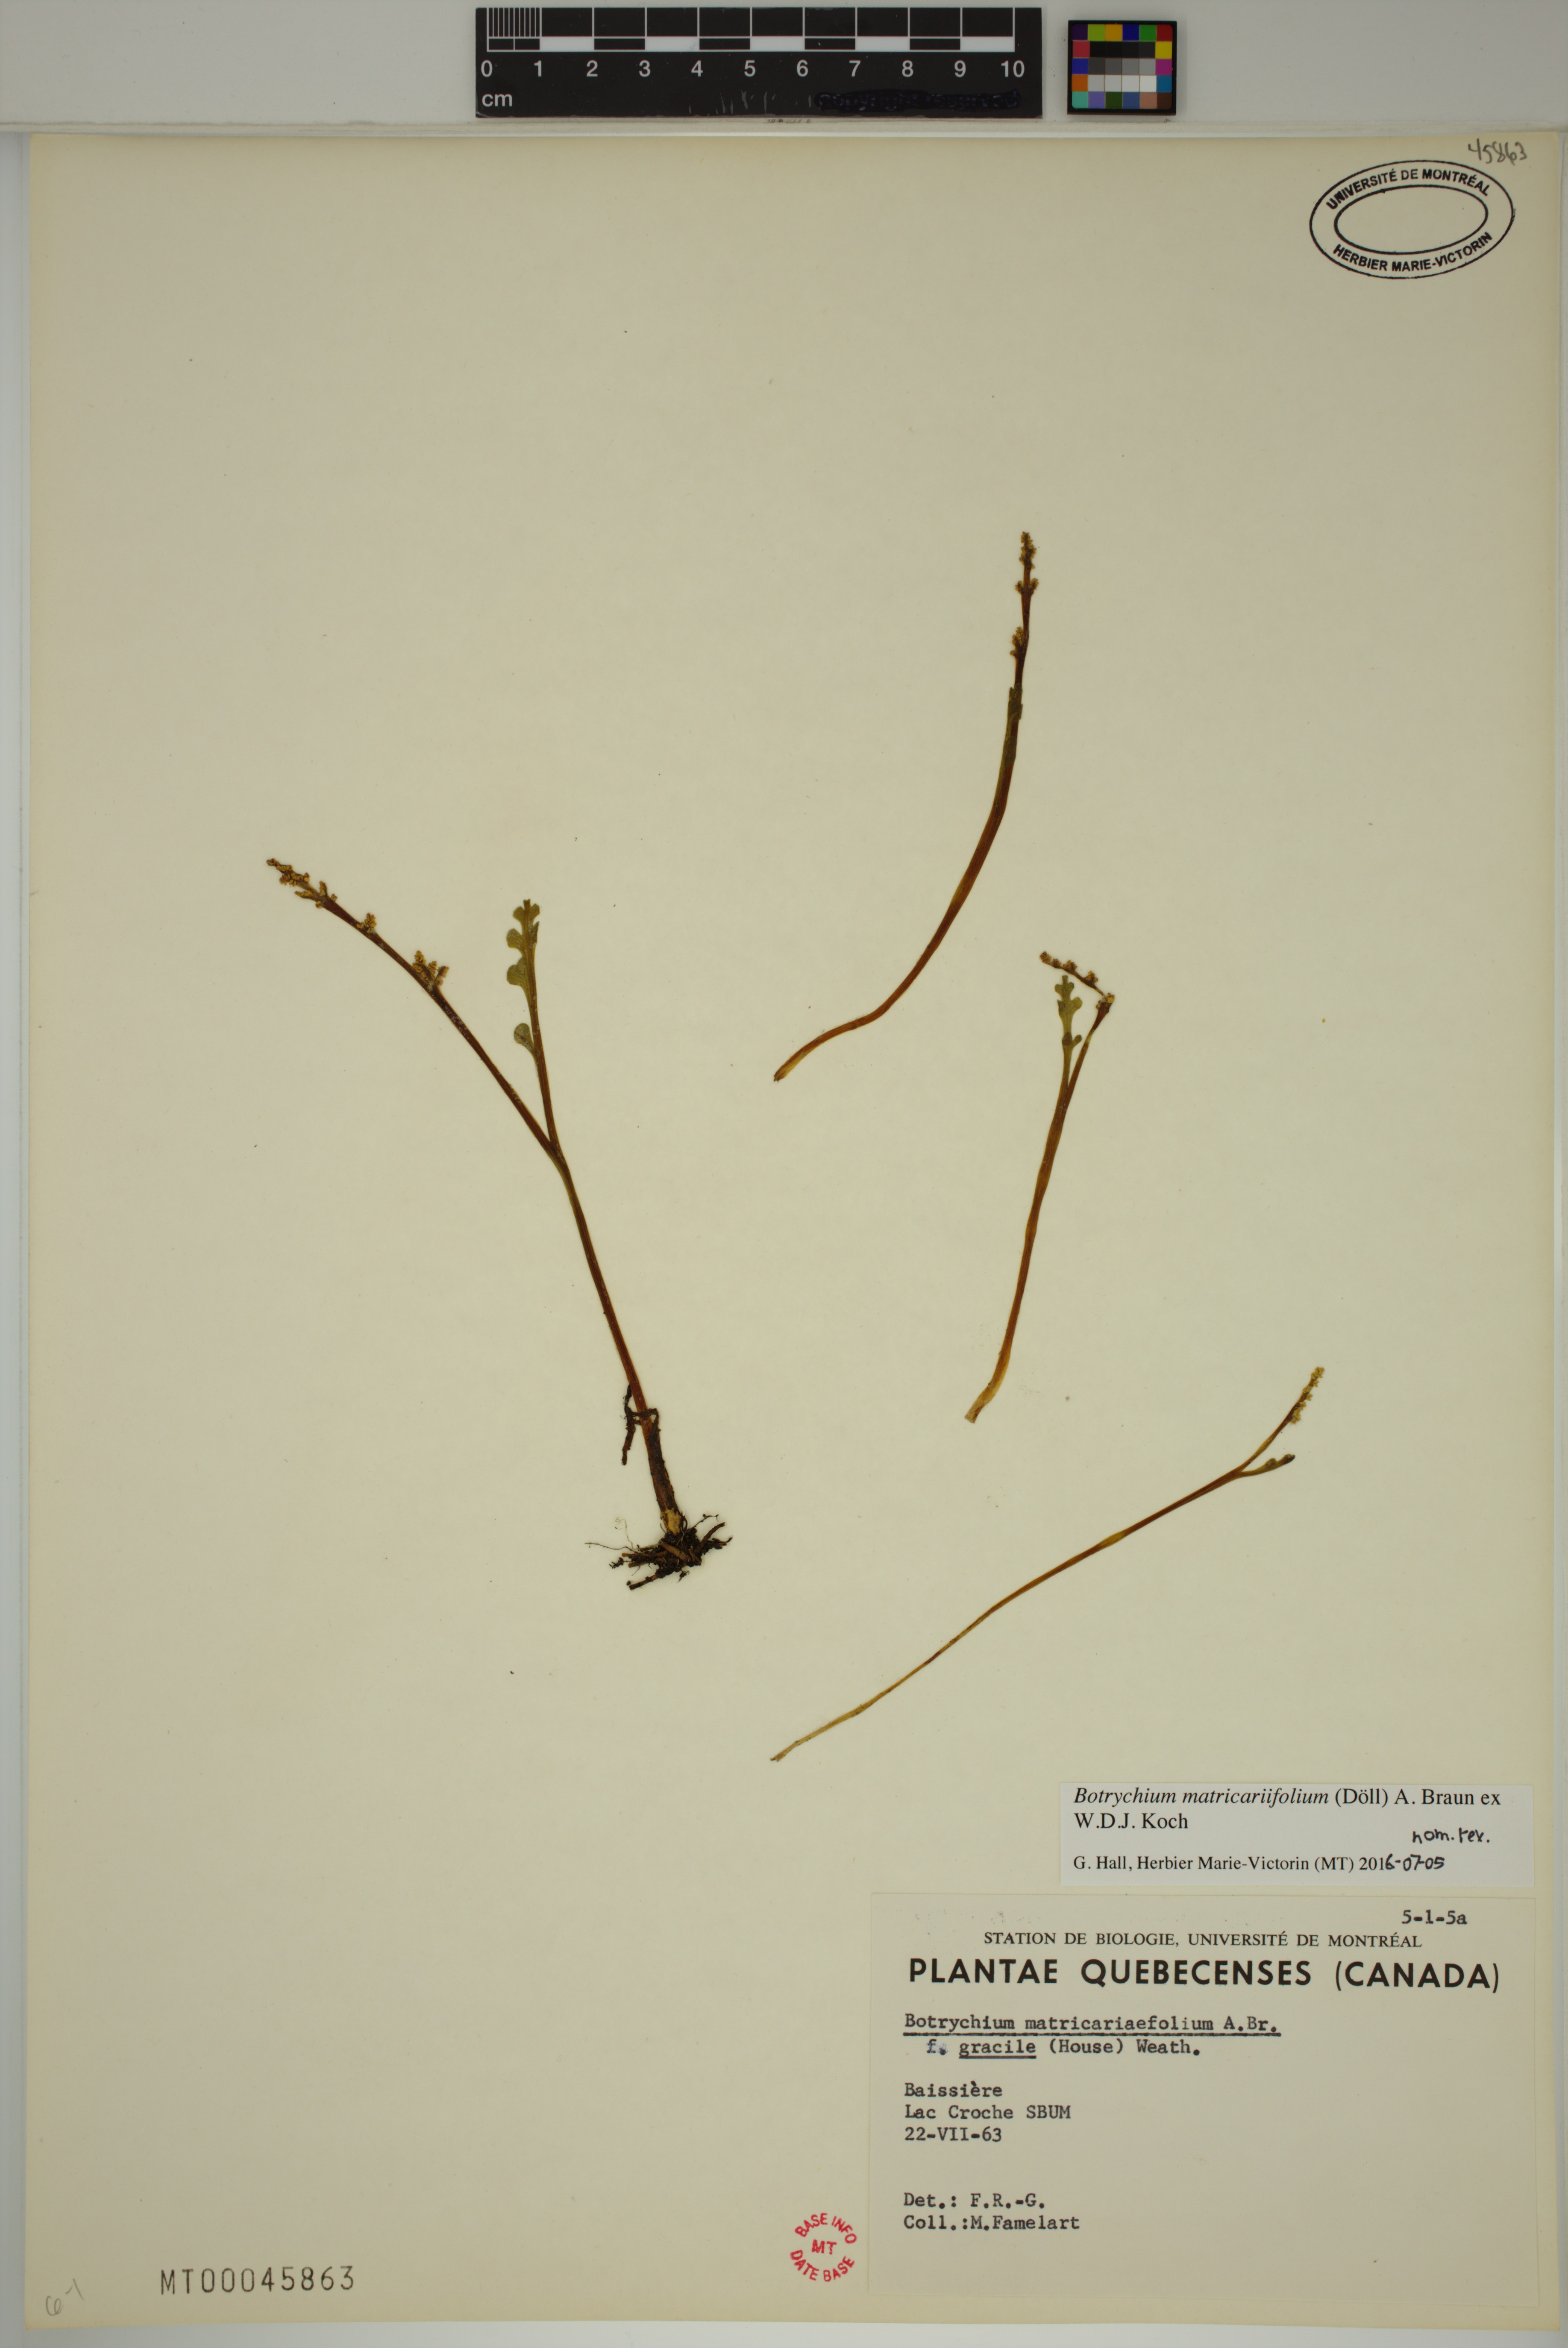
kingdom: Plantae
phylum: Tracheophyta
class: Polypodiopsida
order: Ophioglossales
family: Ophioglossaceae
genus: Botrychium
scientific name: Botrychium matricariifolium
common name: Branched moonwort
